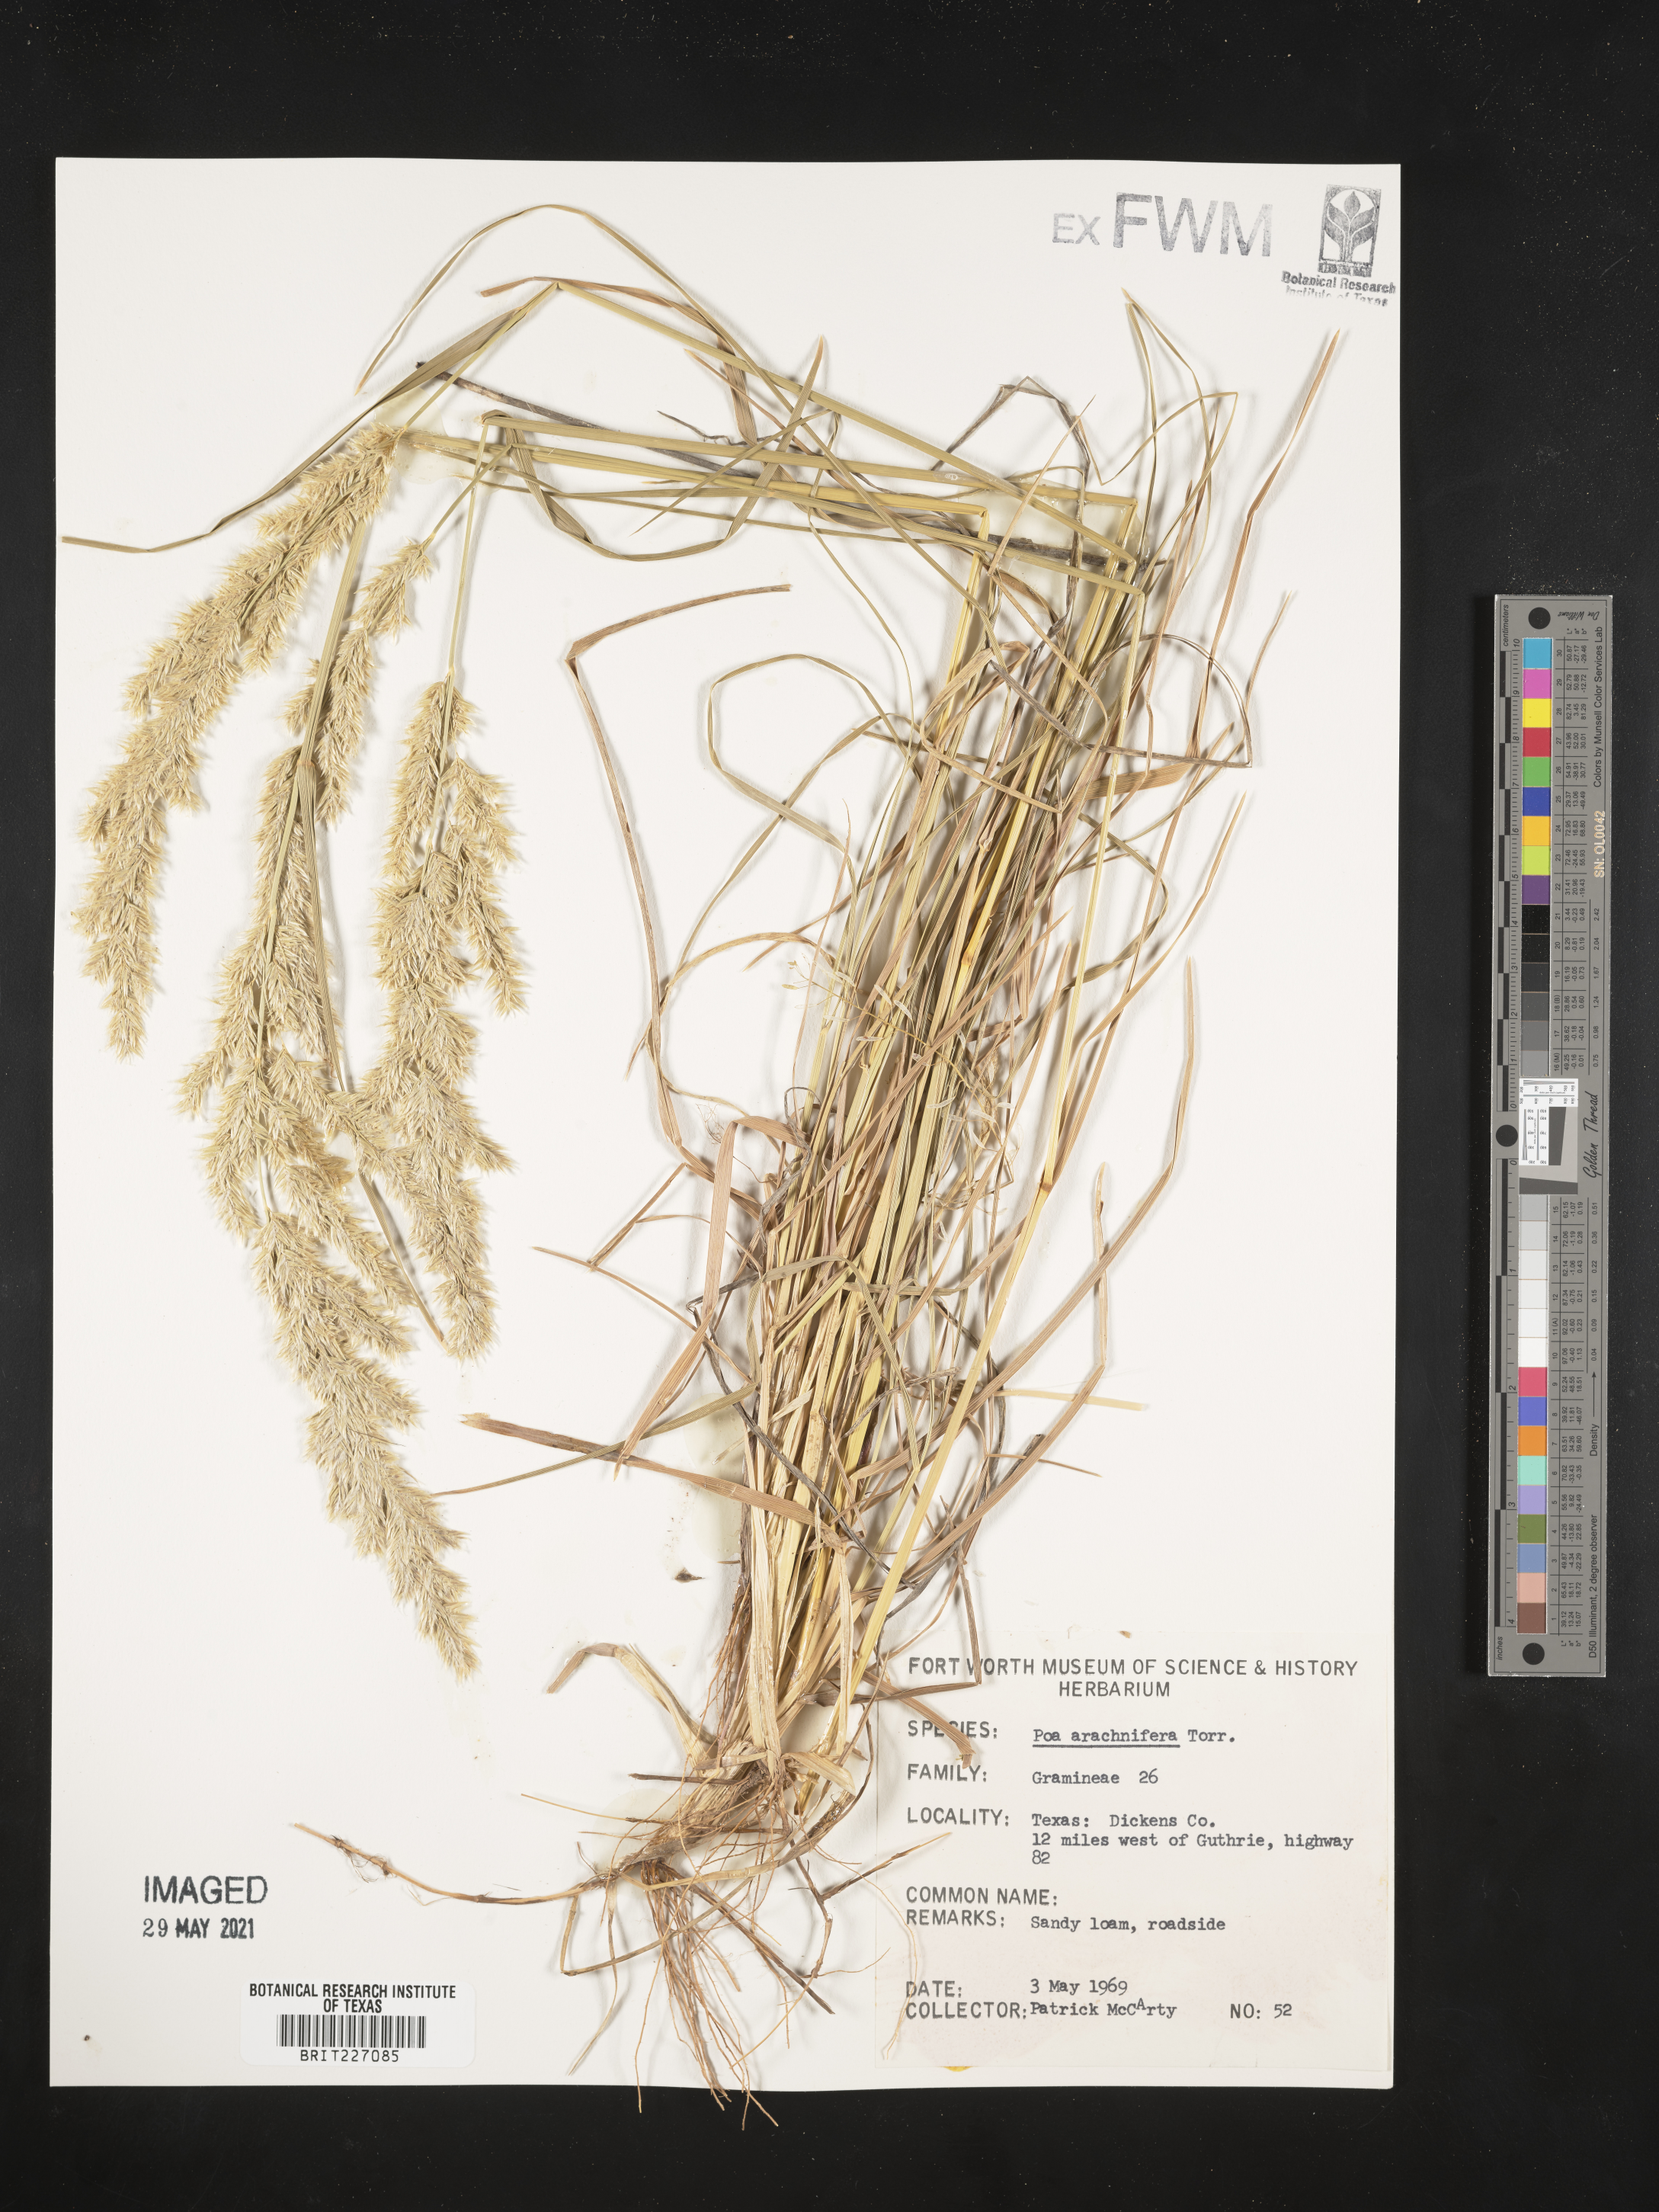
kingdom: Plantae
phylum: Tracheophyta
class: Liliopsida
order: Poales
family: Poaceae
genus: Poa
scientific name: Poa arachnifera
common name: Texas bluegrass
